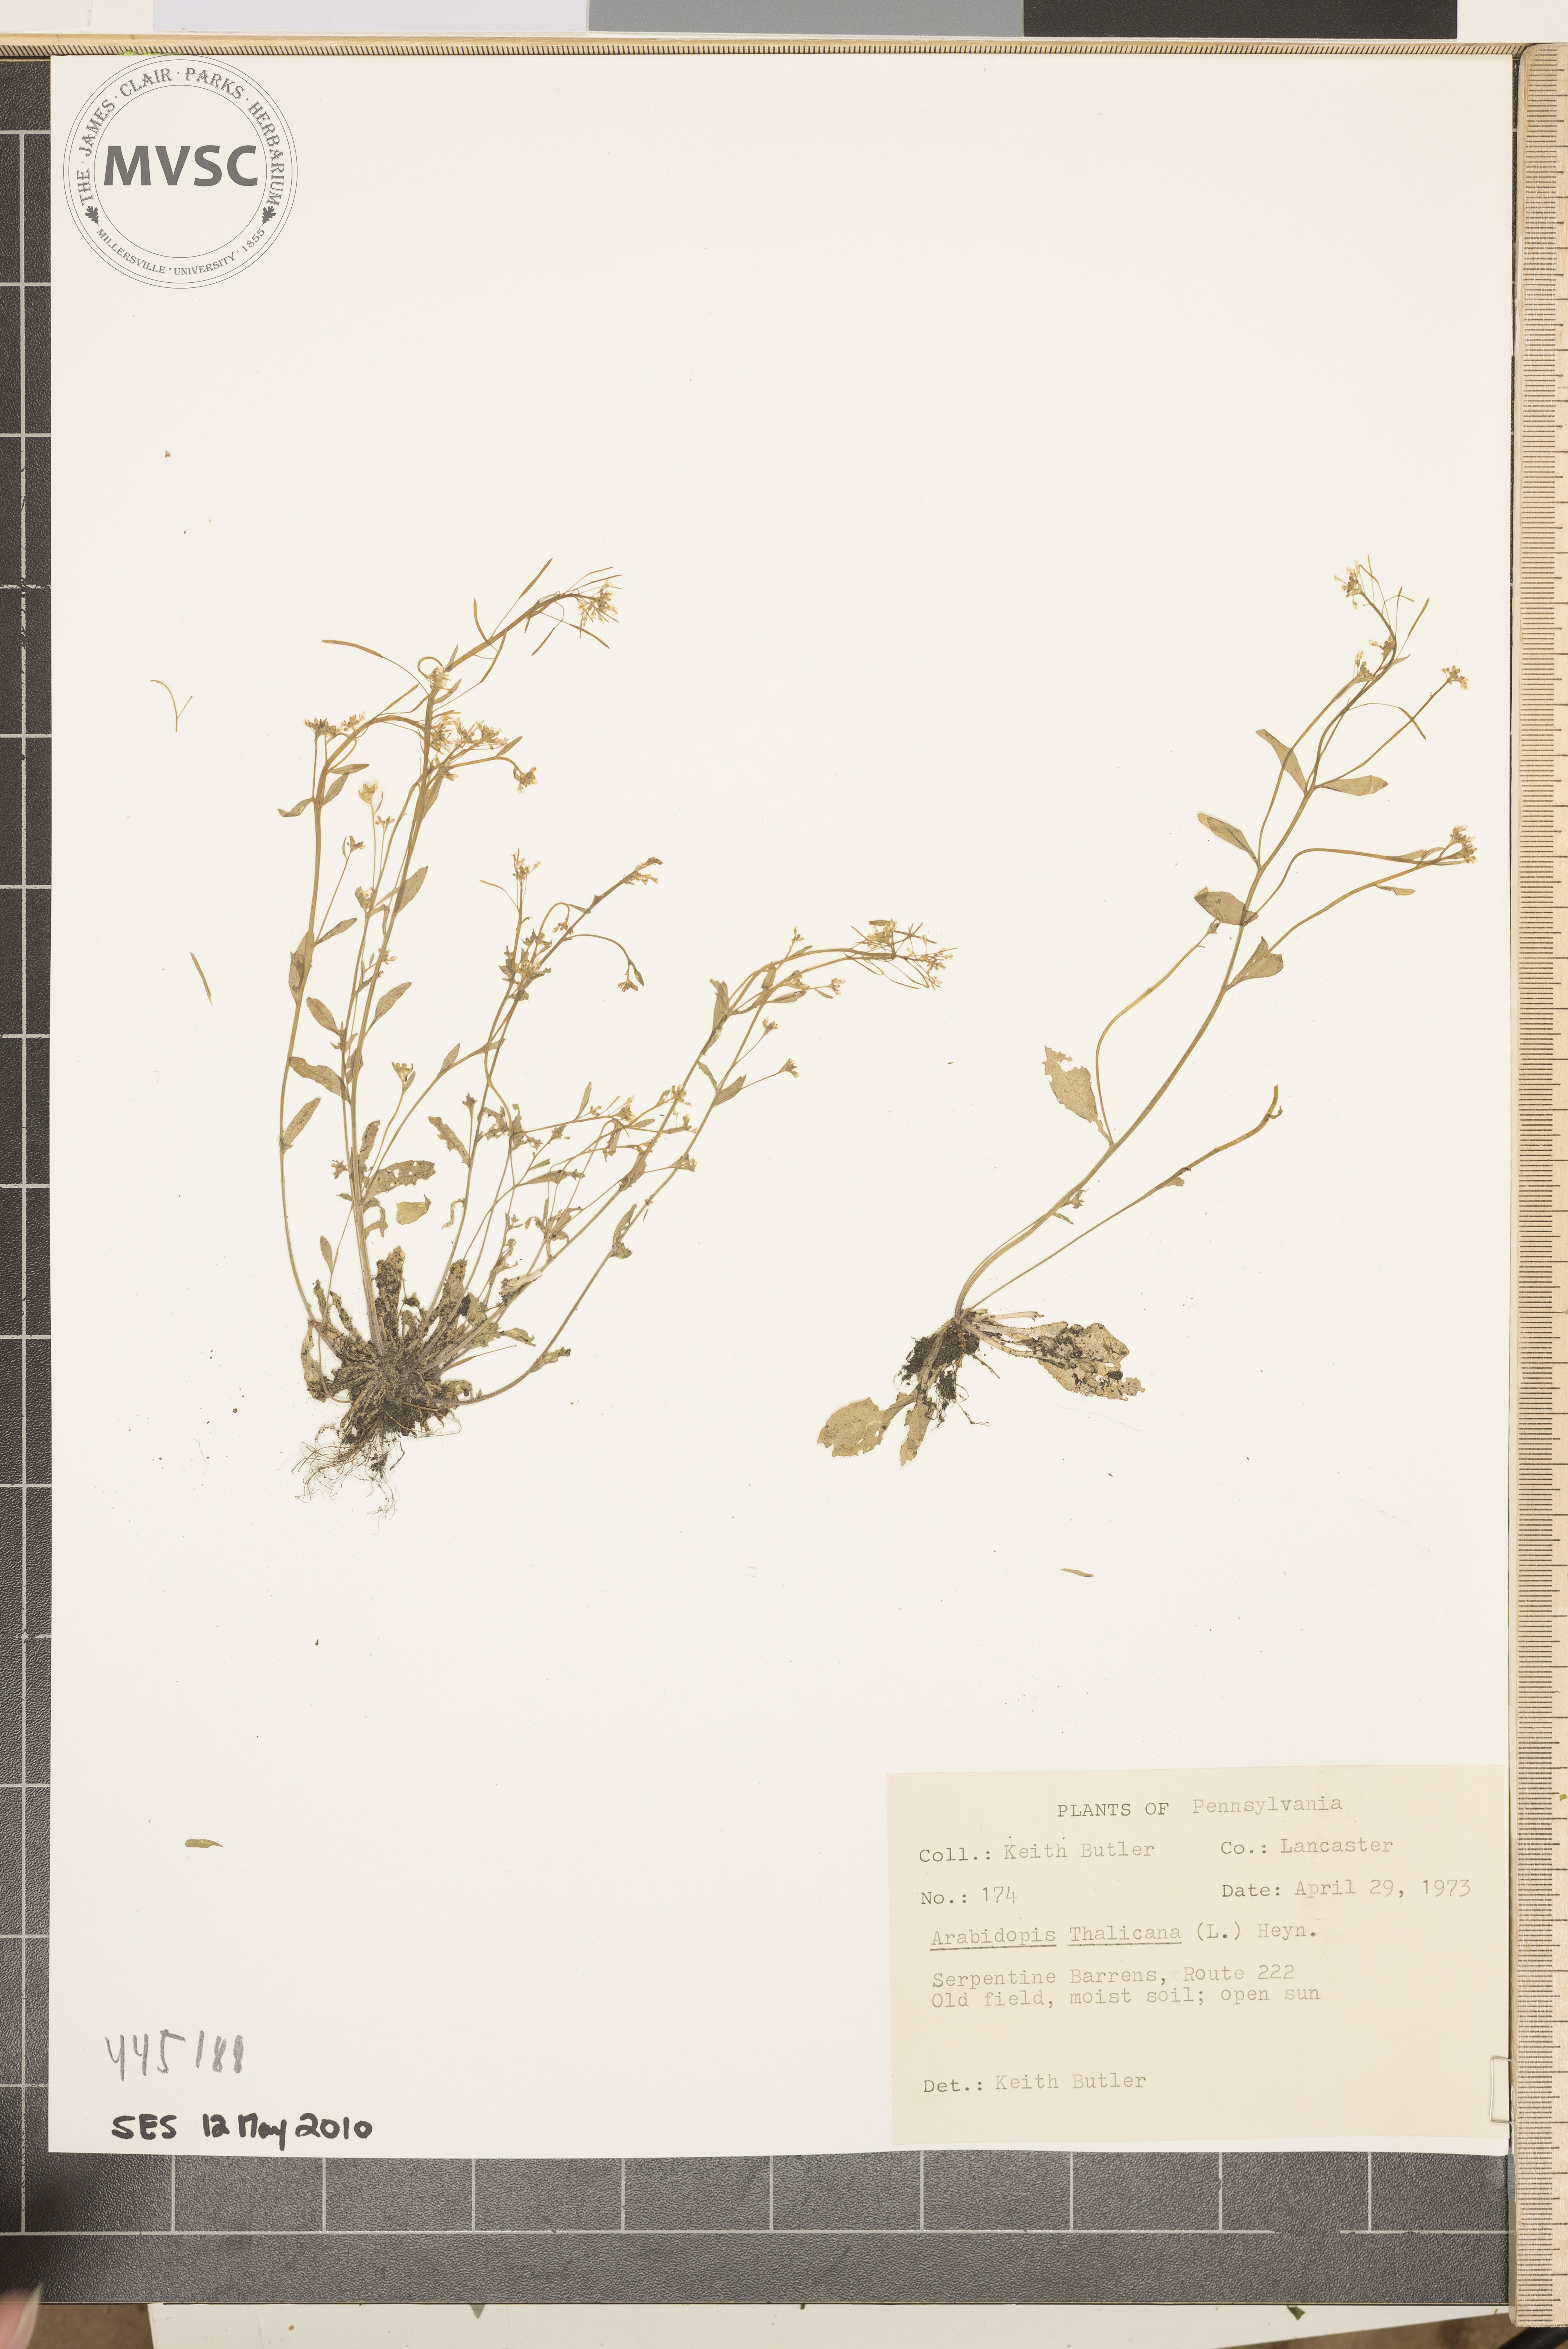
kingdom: Plantae
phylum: Tracheophyta
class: Magnoliopsida
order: Brassicales
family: Brassicaceae
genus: Arabidopsis
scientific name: Arabidopsis thaliana
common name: Thale cress
